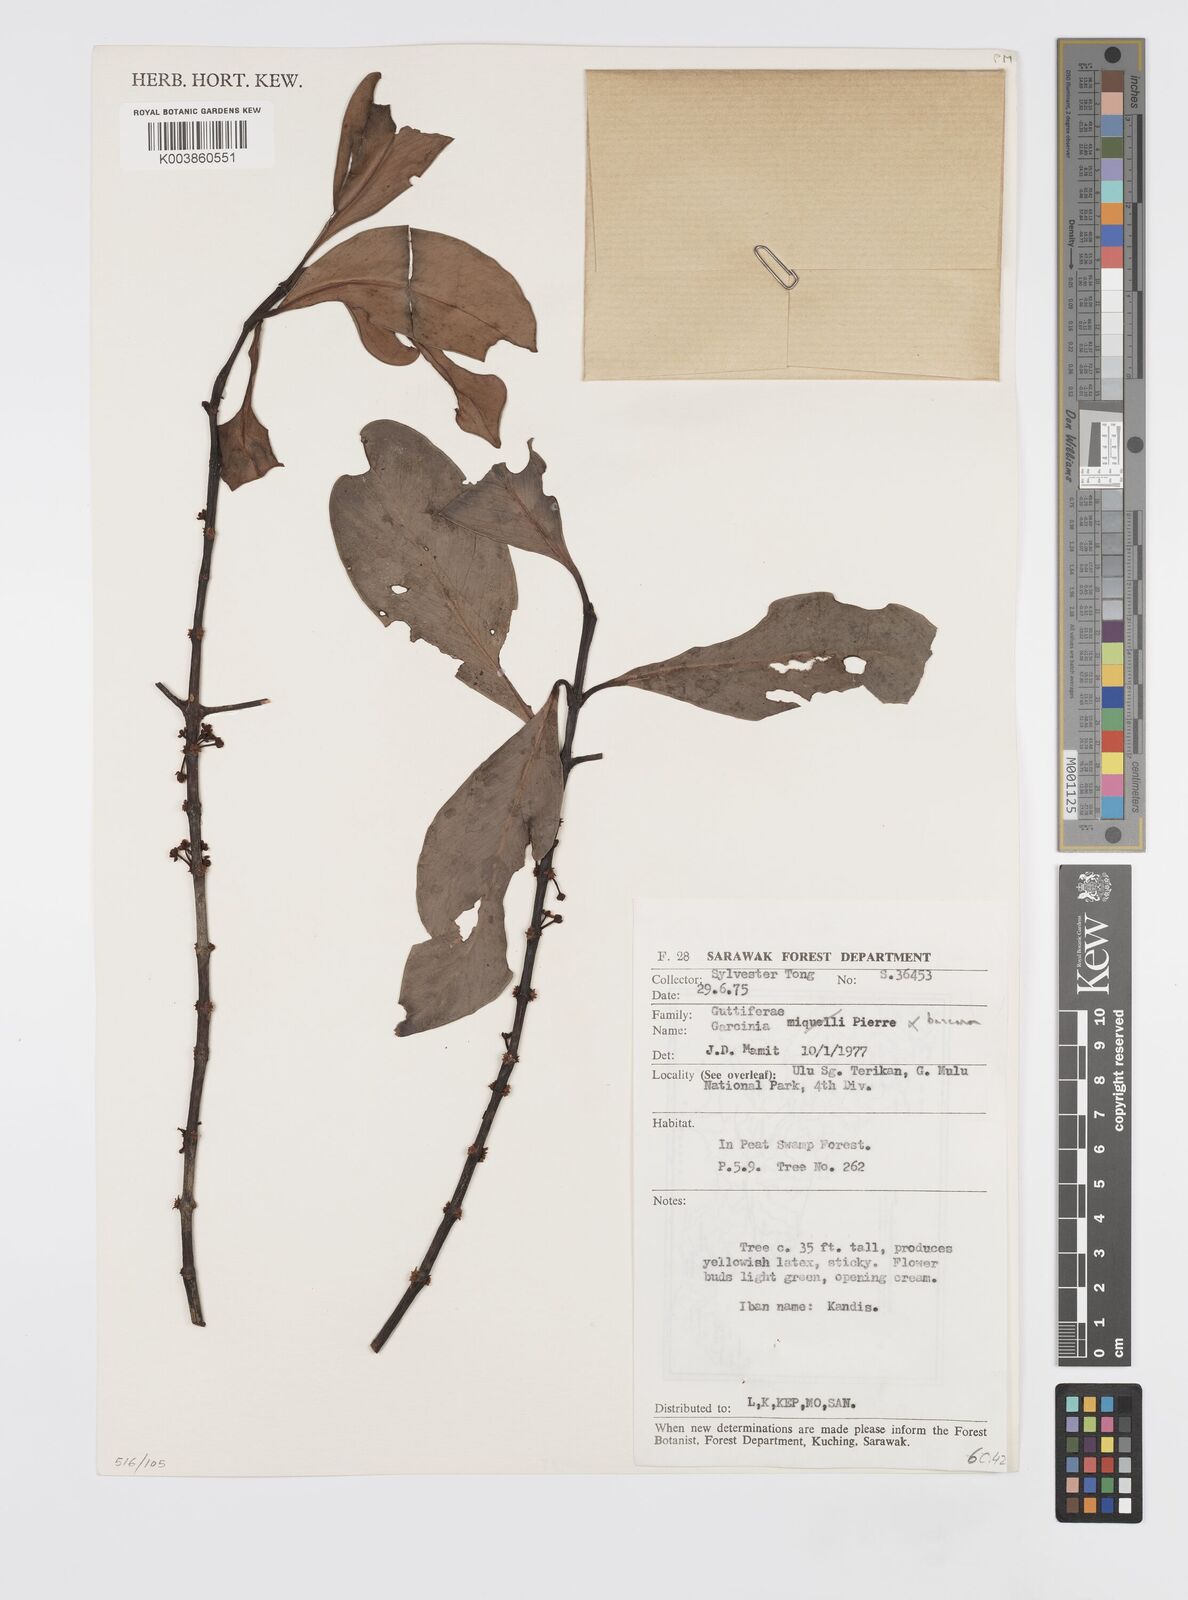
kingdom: Plantae
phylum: Tracheophyta
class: Magnoliopsida
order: Malpighiales
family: Clusiaceae
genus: Garcinia
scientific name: Garcinia bancana
